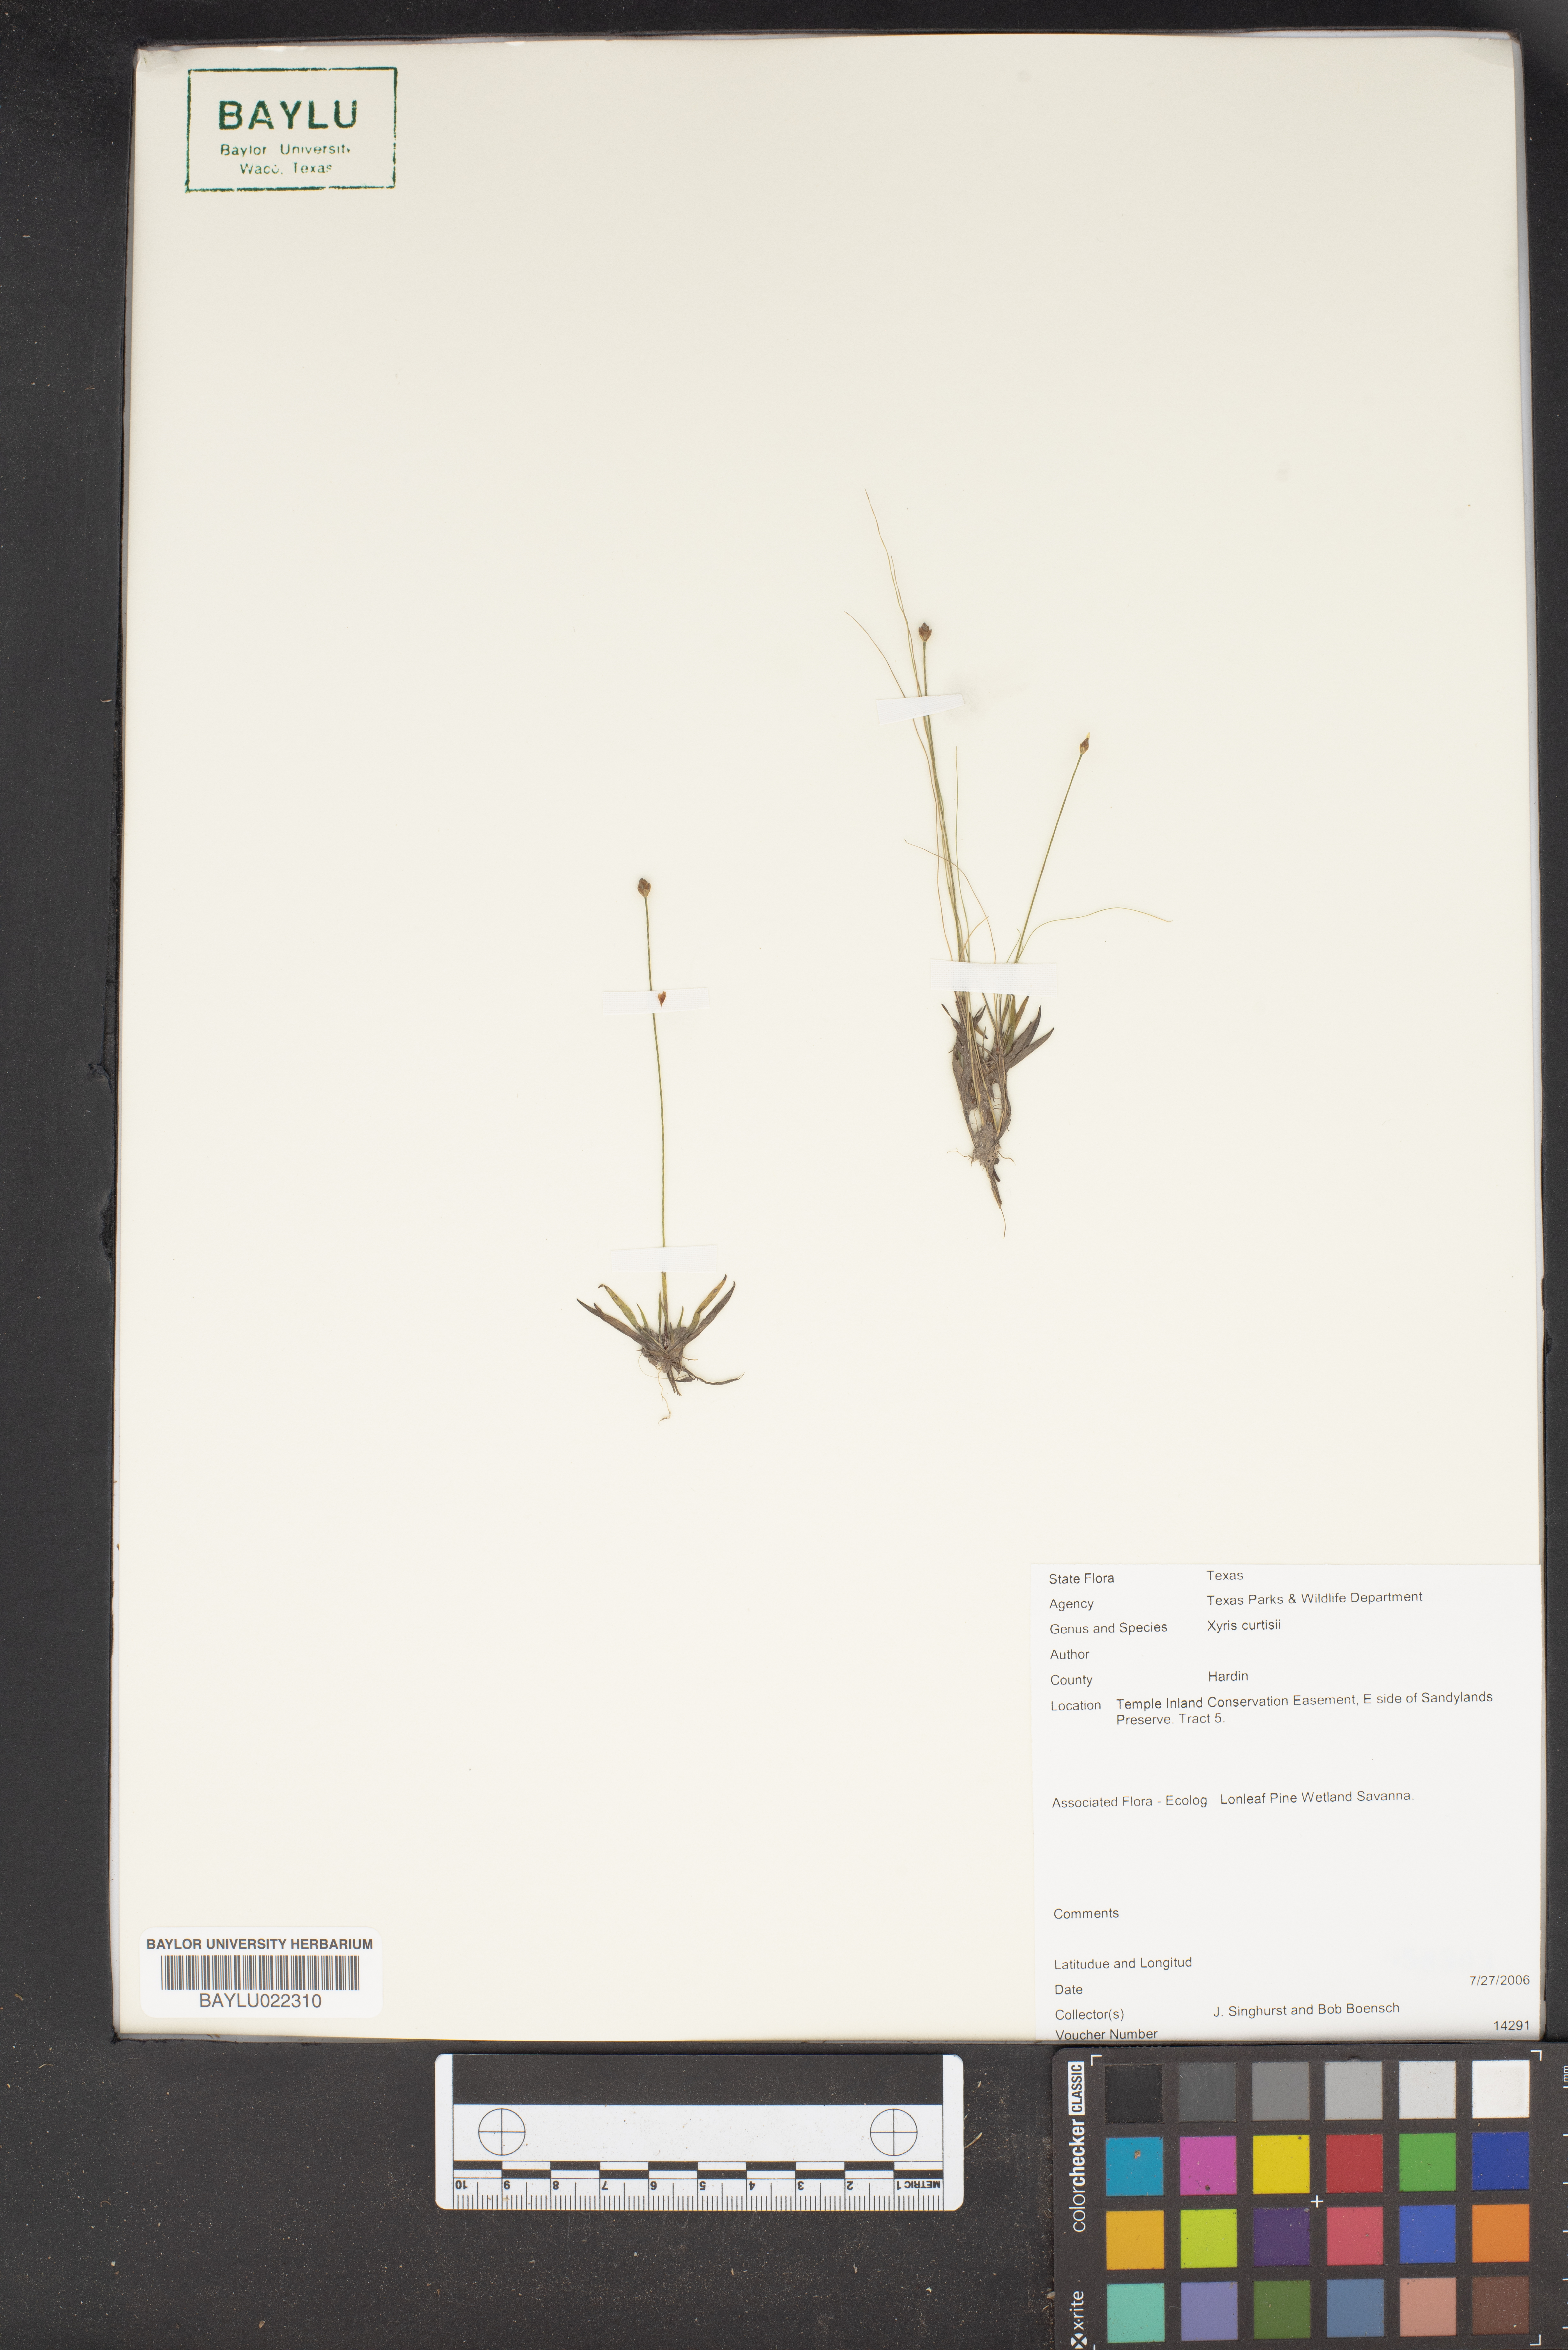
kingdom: Plantae
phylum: Tracheophyta
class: Liliopsida
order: Poales
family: Xyridaceae
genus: Xyris
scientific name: Xyris difformis
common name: Bog yellow-eyed-grass
